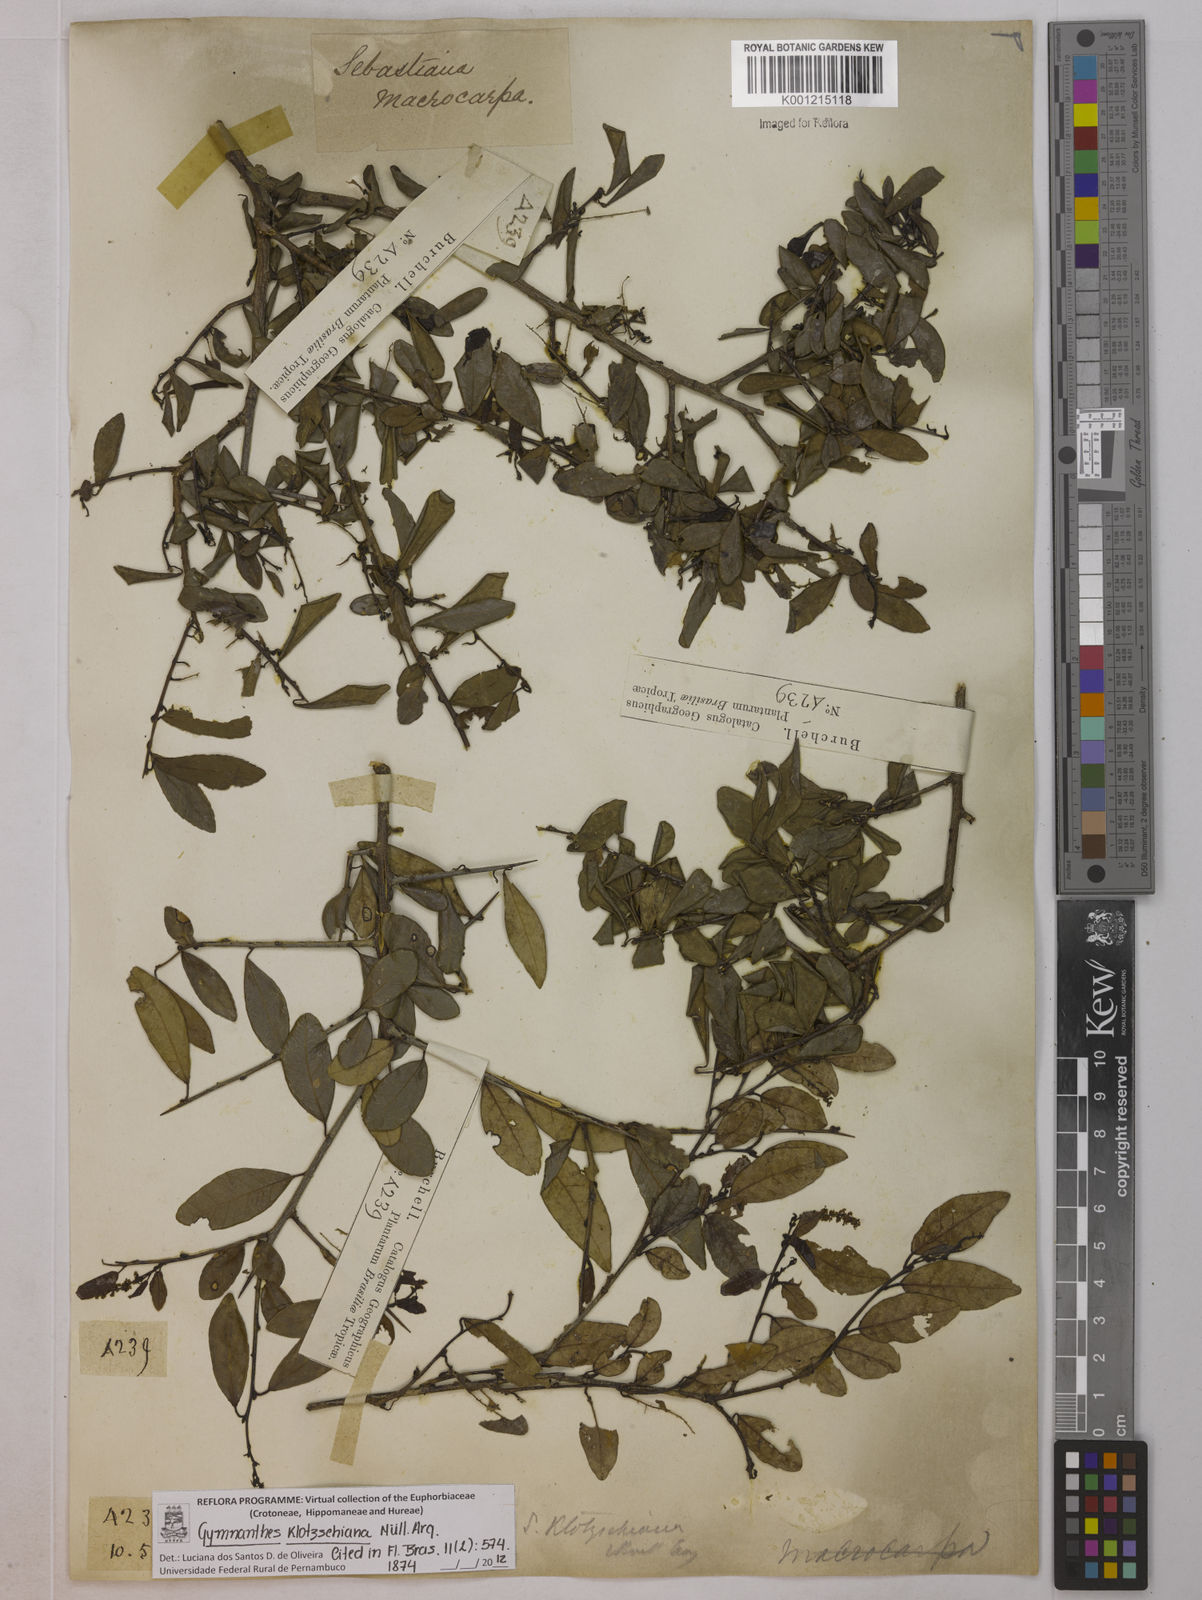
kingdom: Plantae
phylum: Tracheophyta
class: Magnoliopsida
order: Malpighiales
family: Euphorbiaceae
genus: Gymnanthes
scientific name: Gymnanthes
